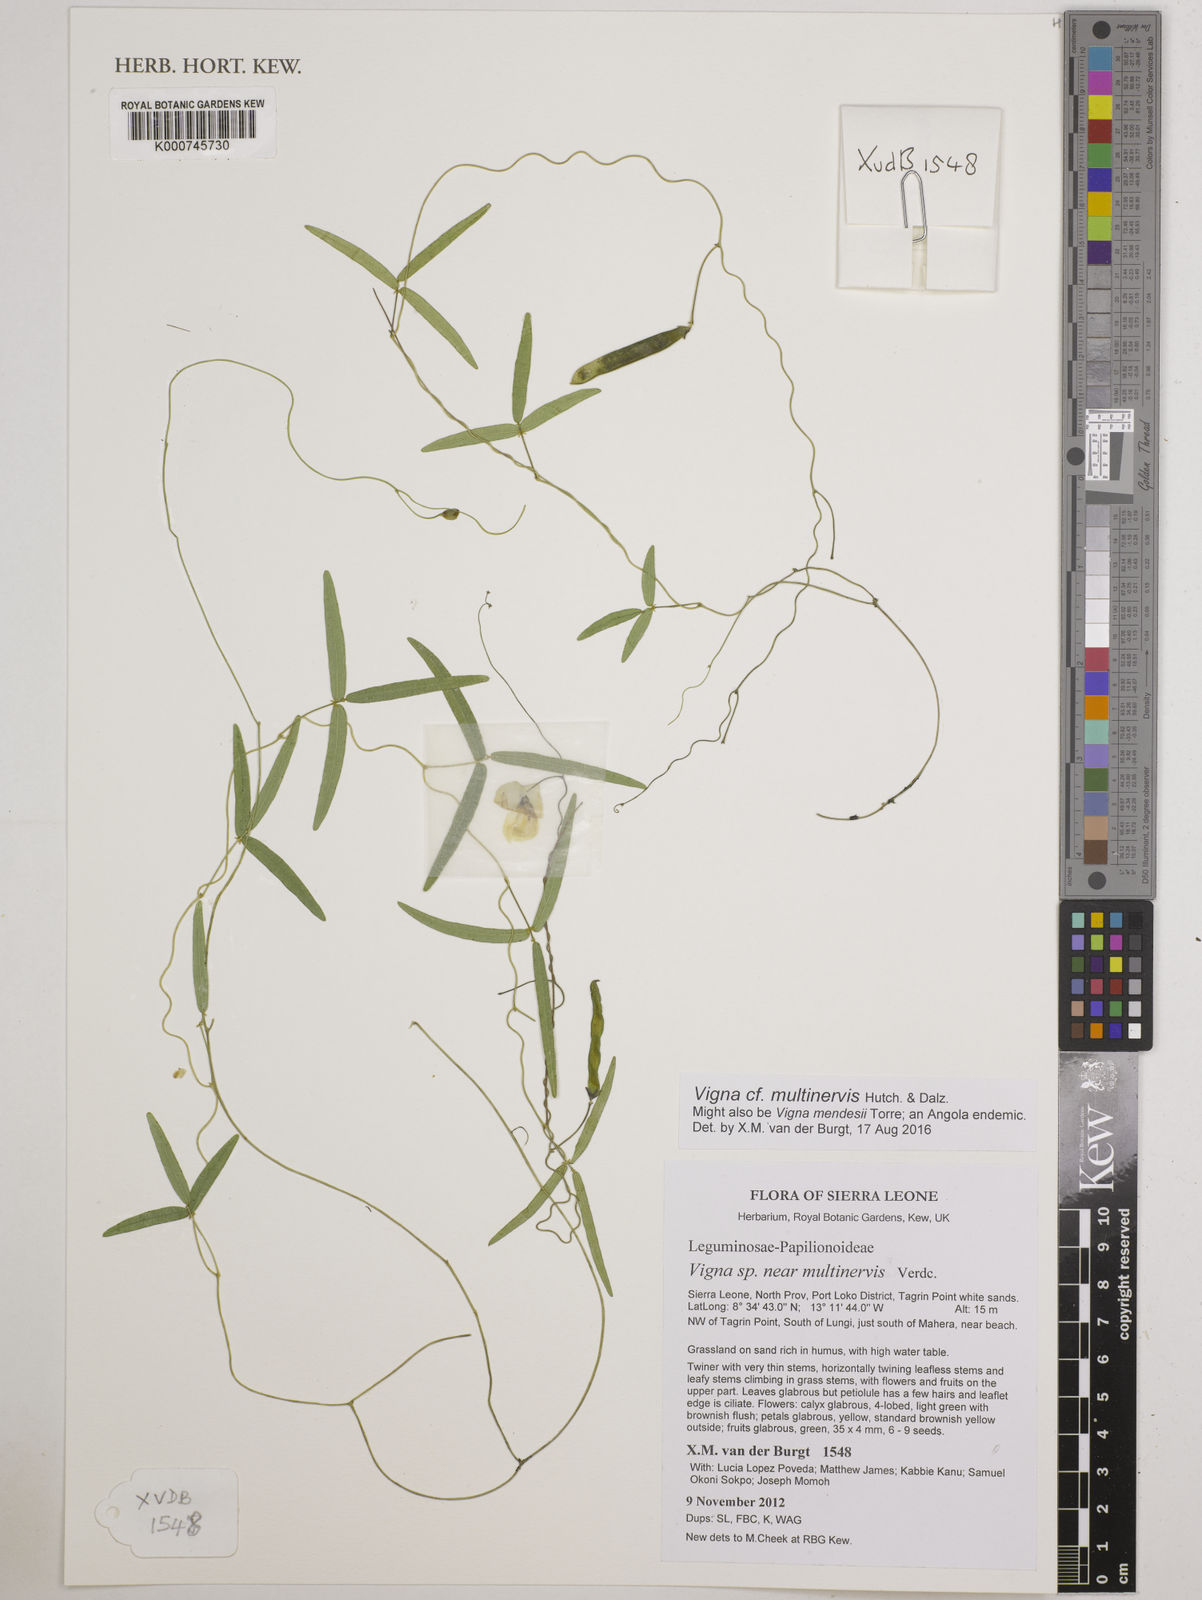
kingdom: Plantae
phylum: Tracheophyta
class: Magnoliopsida
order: Fabales
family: Fabaceae
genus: Vigna
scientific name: Vigna multinervis
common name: Fula-pulaar
